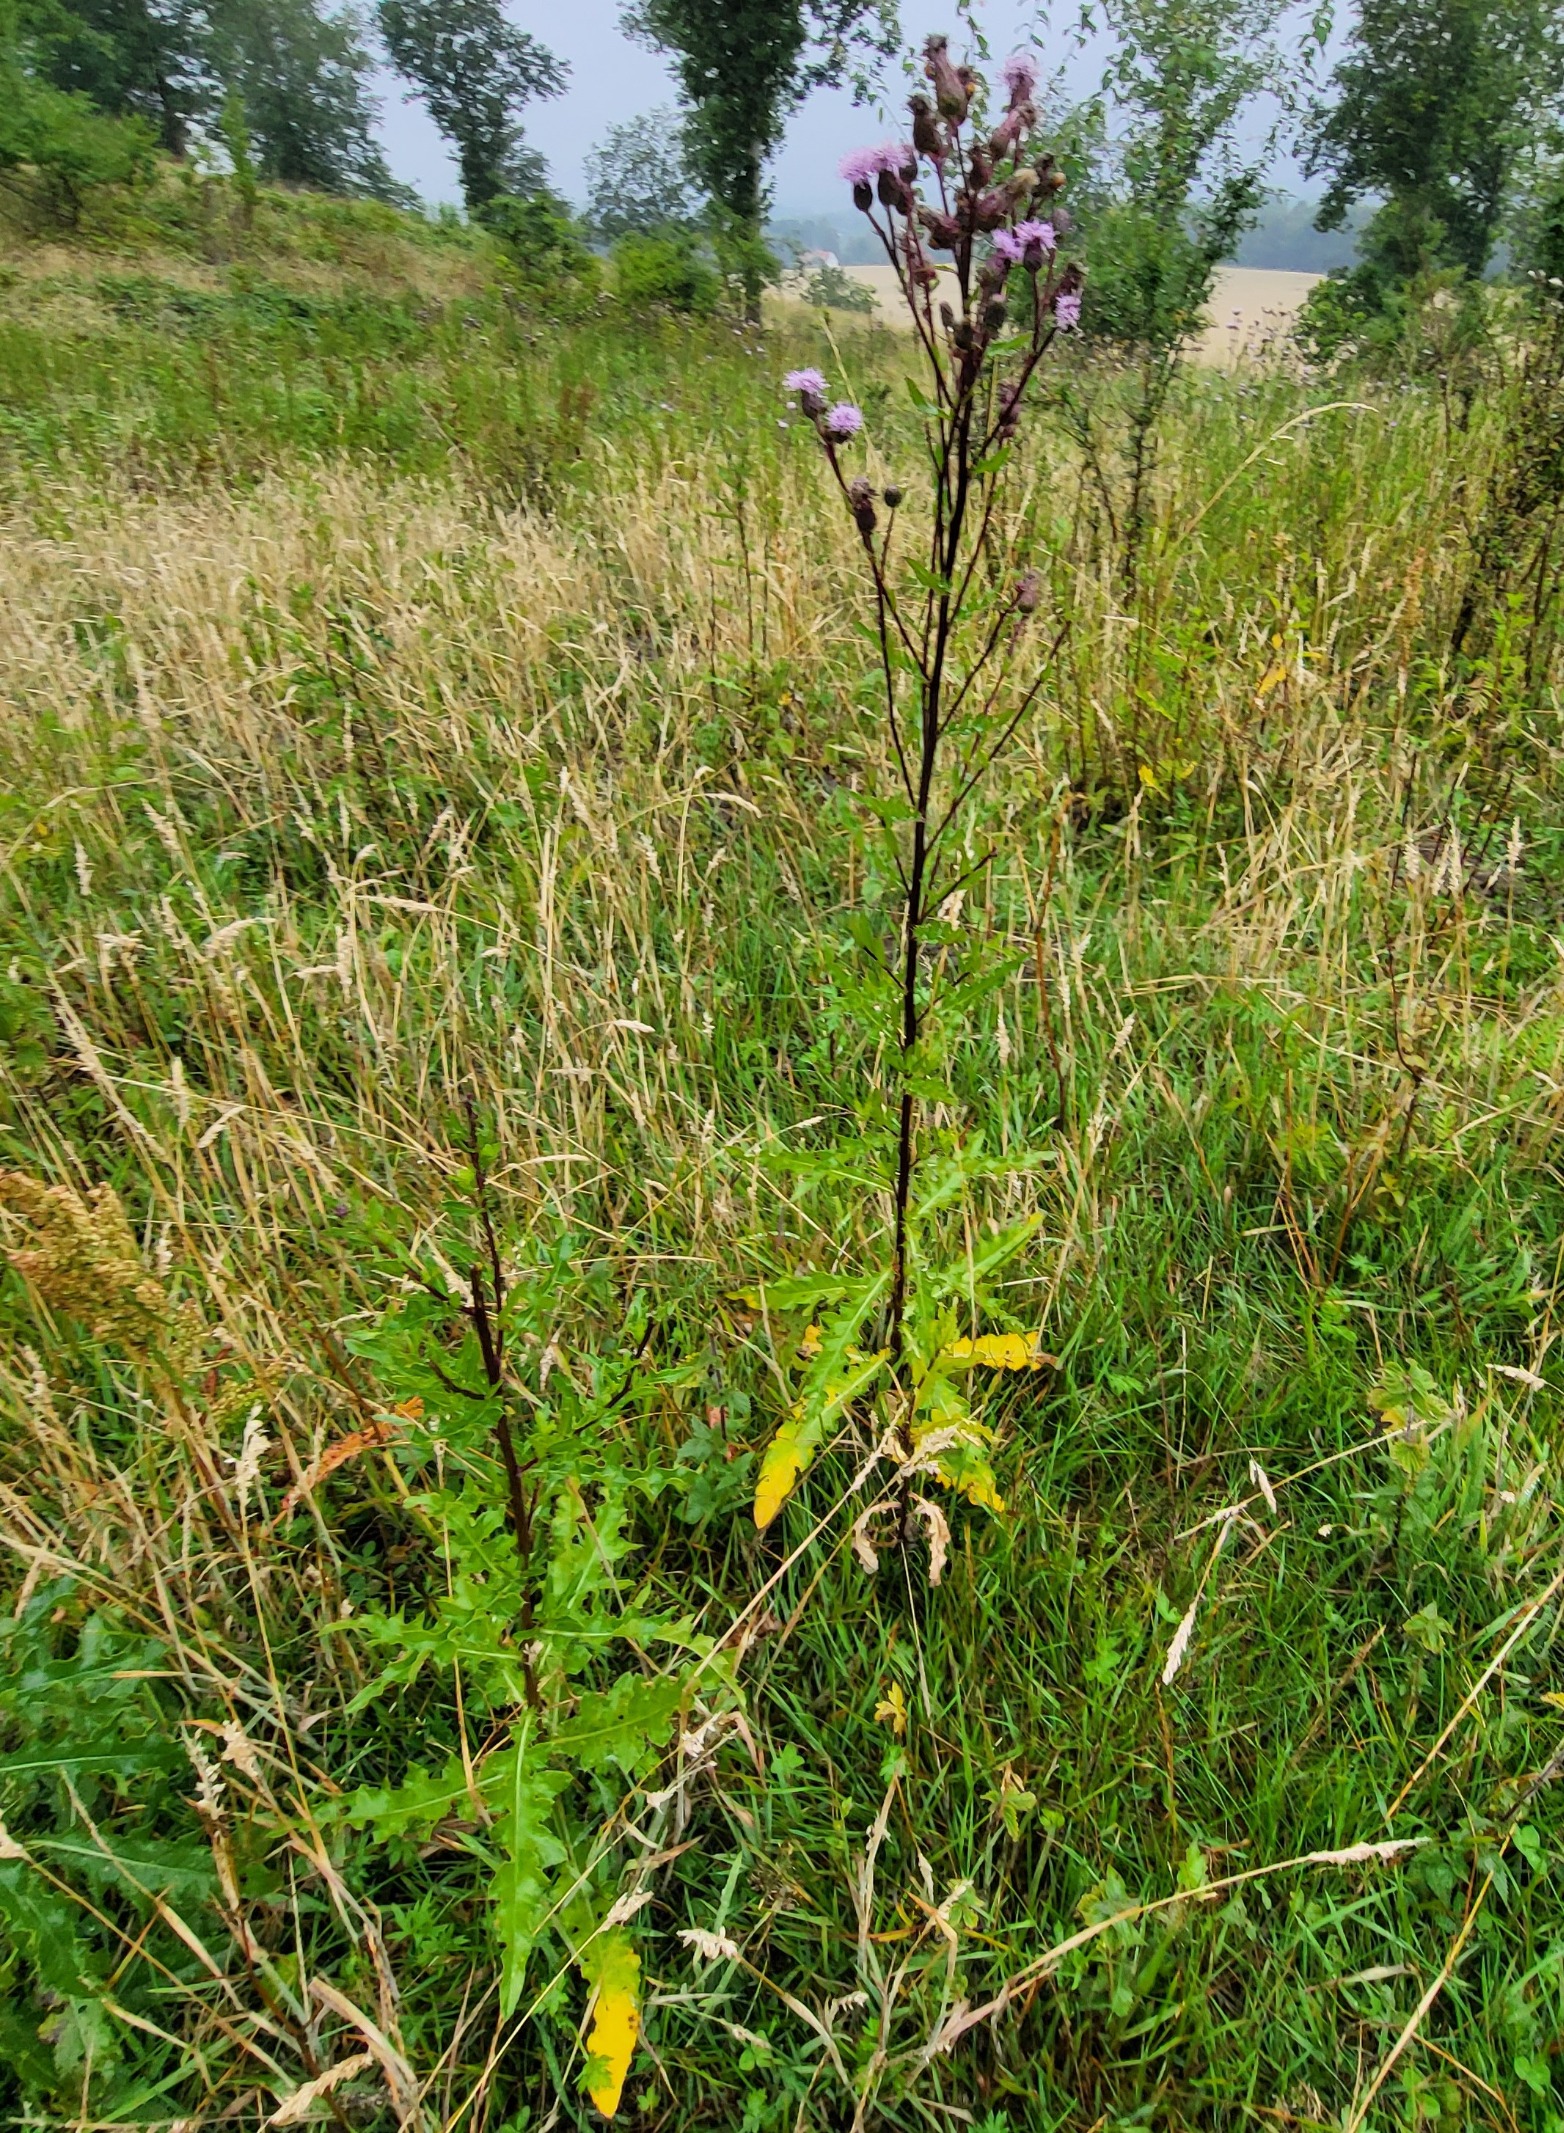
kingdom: Plantae
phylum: Tracheophyta
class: Magnoliopsida
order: Asterales
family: Asteraceae
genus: Cirsium
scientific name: Cirsium arvense
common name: Ager-tidsel
